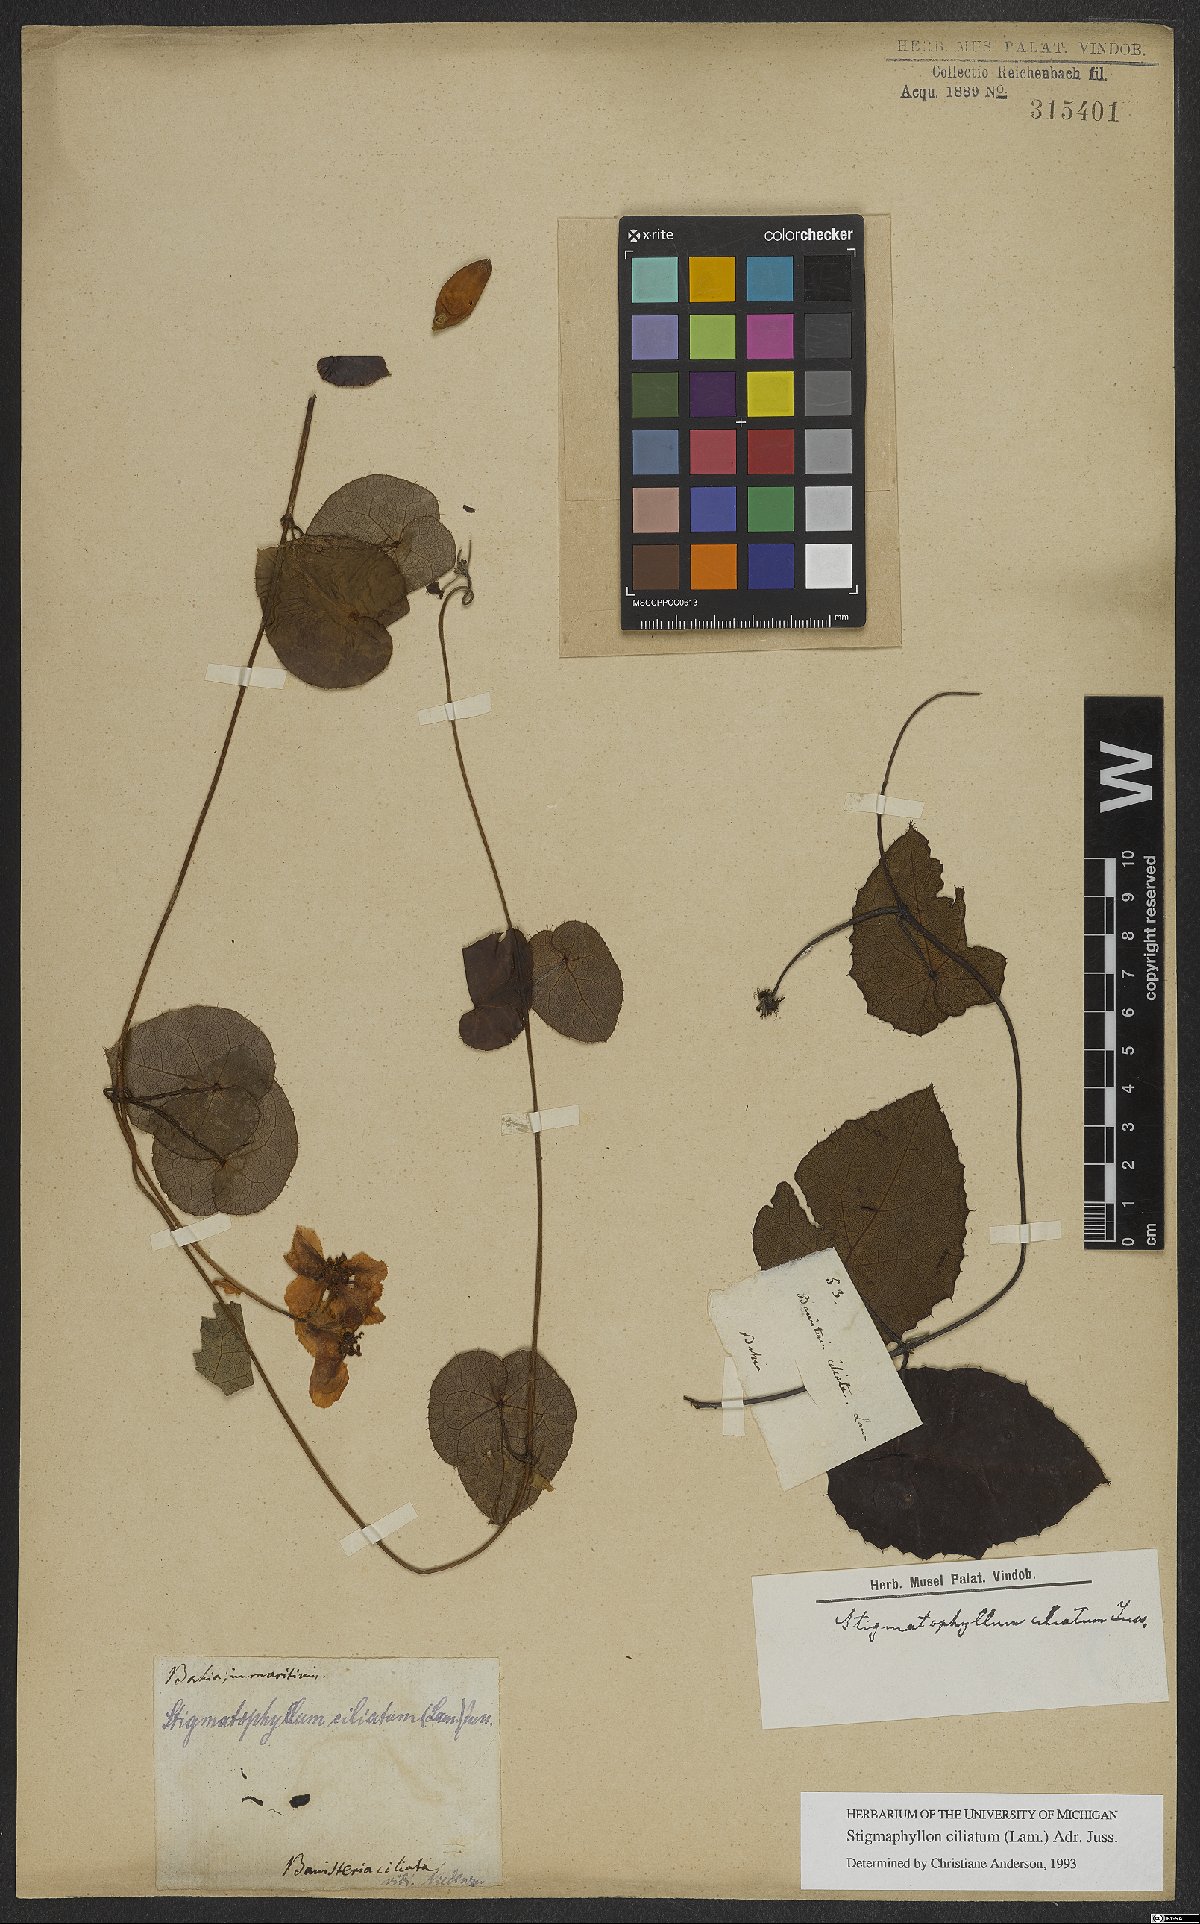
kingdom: Plantae
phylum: Tracheophyta
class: Magnoliopsida
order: Malpighiales
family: Malpighiaceae
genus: Stigmaphyllon
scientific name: Stigmaphyllon ciliatum
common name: Amazonvine
